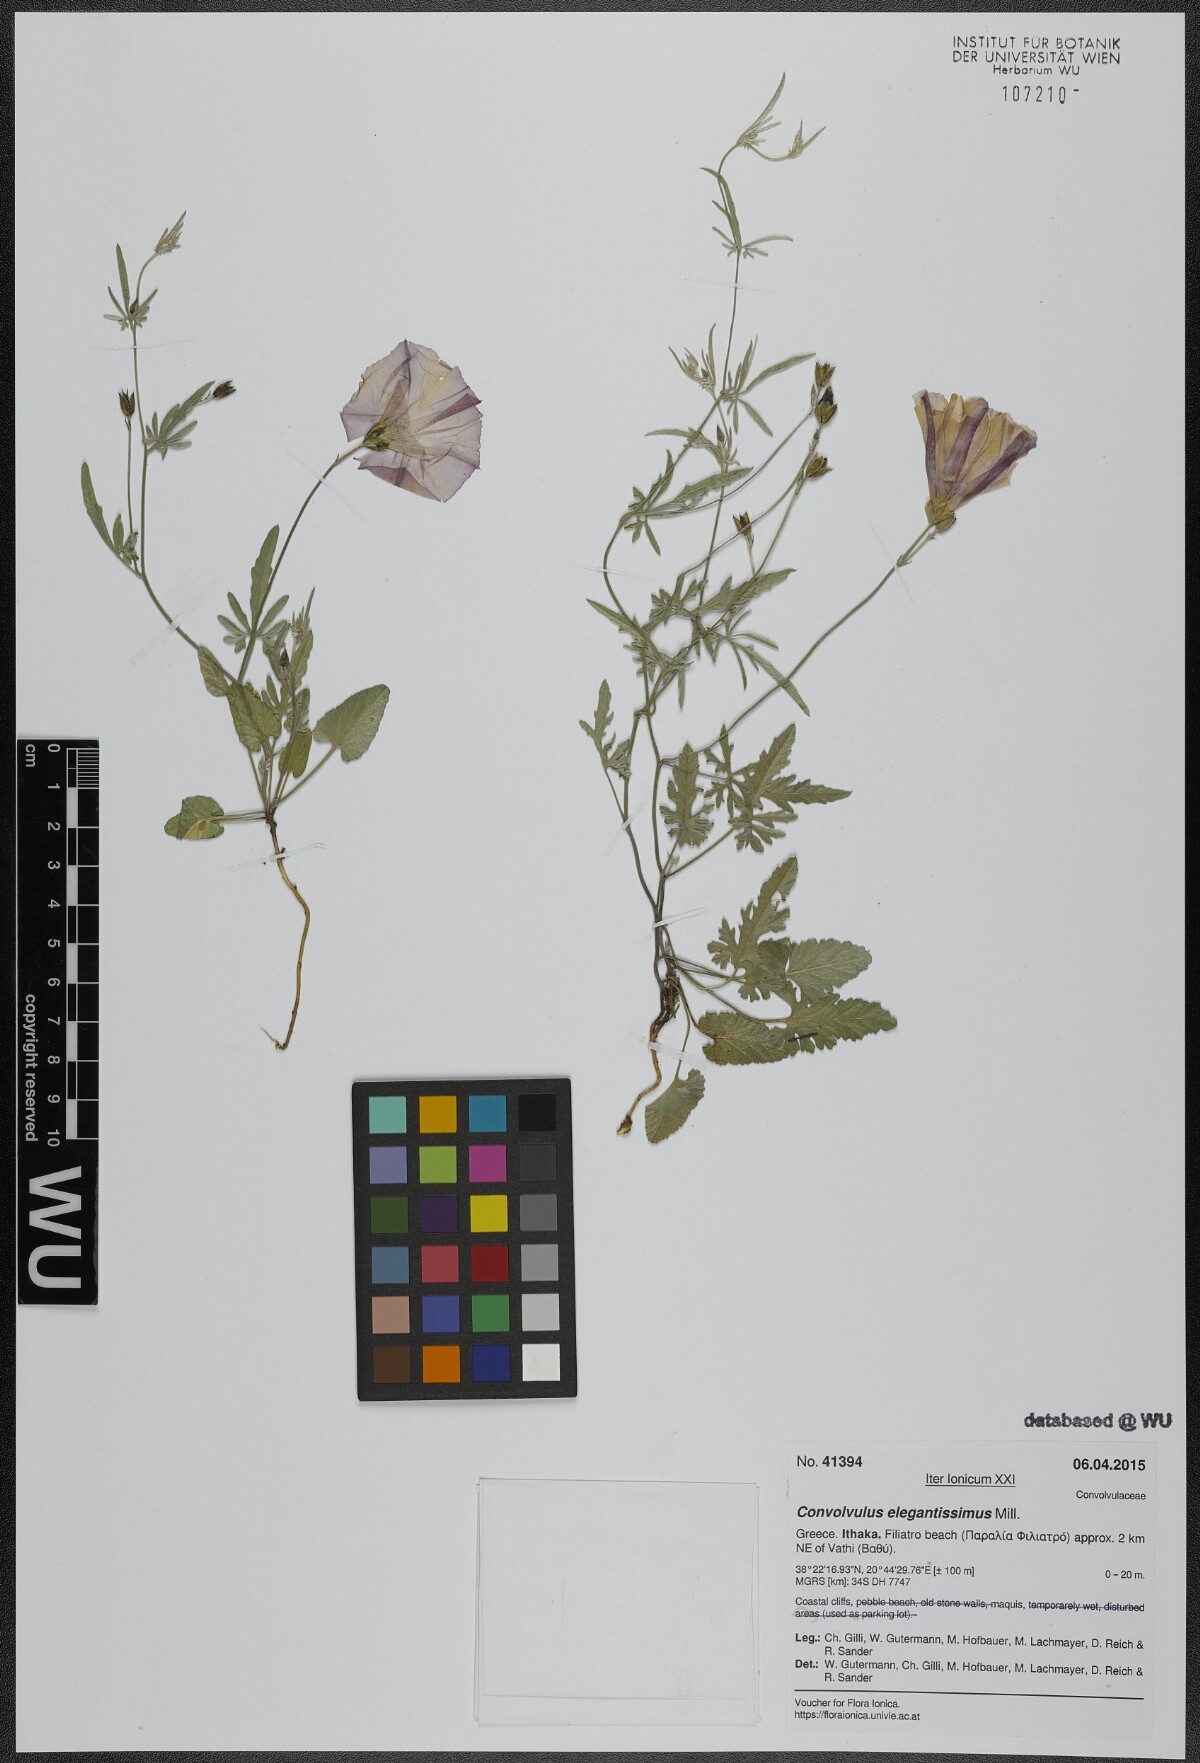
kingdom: Plantae
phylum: Tracheophyta
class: Magnoliopsida
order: Solanales
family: Convolvulaceae
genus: Convolvulus
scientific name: Convolvulus elegantissimus
